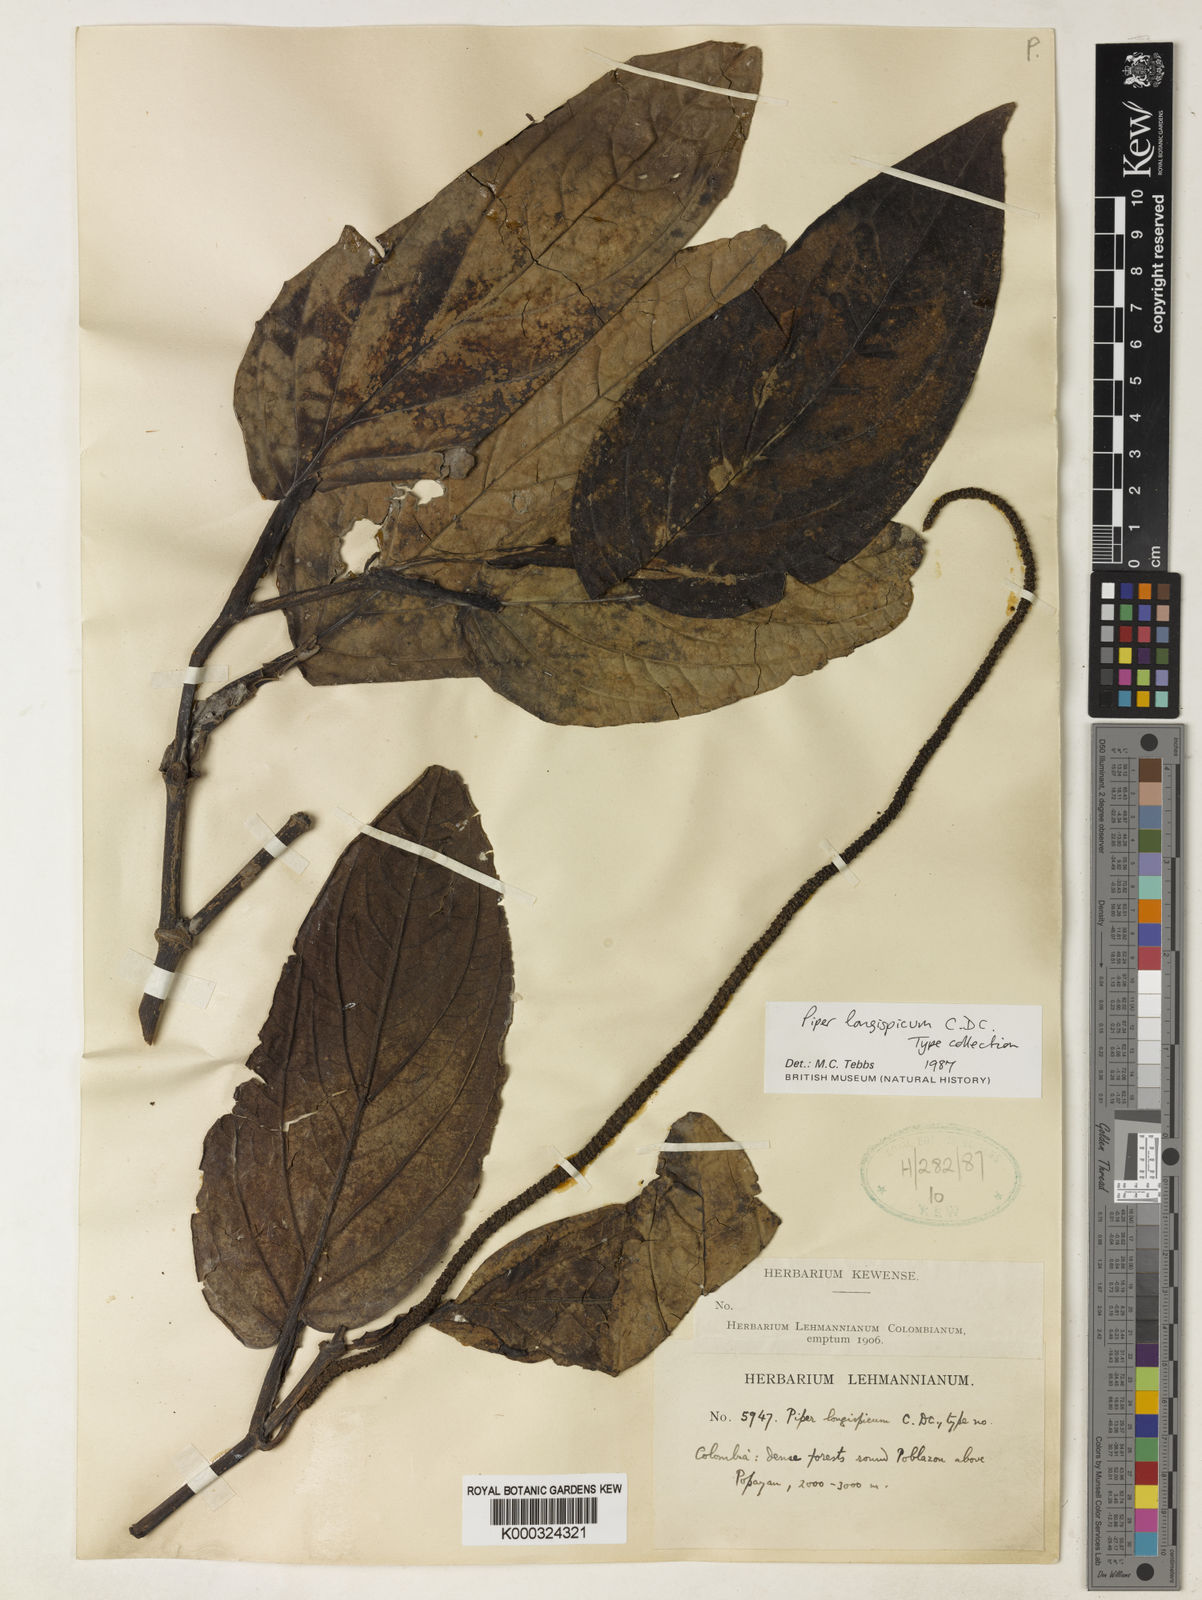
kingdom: Plantae
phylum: Tracheophyta
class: Magnoliopsida
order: Piperales
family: Piperaceae
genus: Piper
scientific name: Piper longispicum
